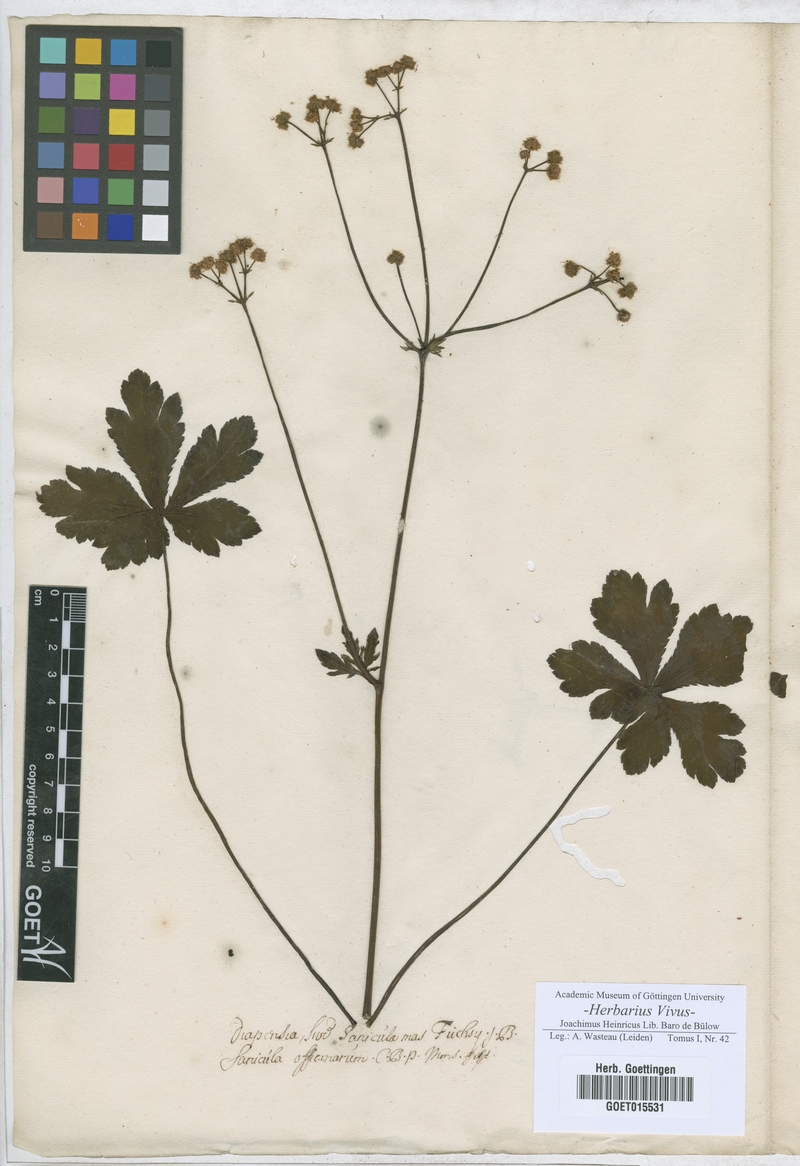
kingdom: Plantae
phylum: Tracheophyta
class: Magnoliopsida
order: Apiales
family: Apiaceae
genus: Sanicula
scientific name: Sanicula europaea
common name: Sanicle
